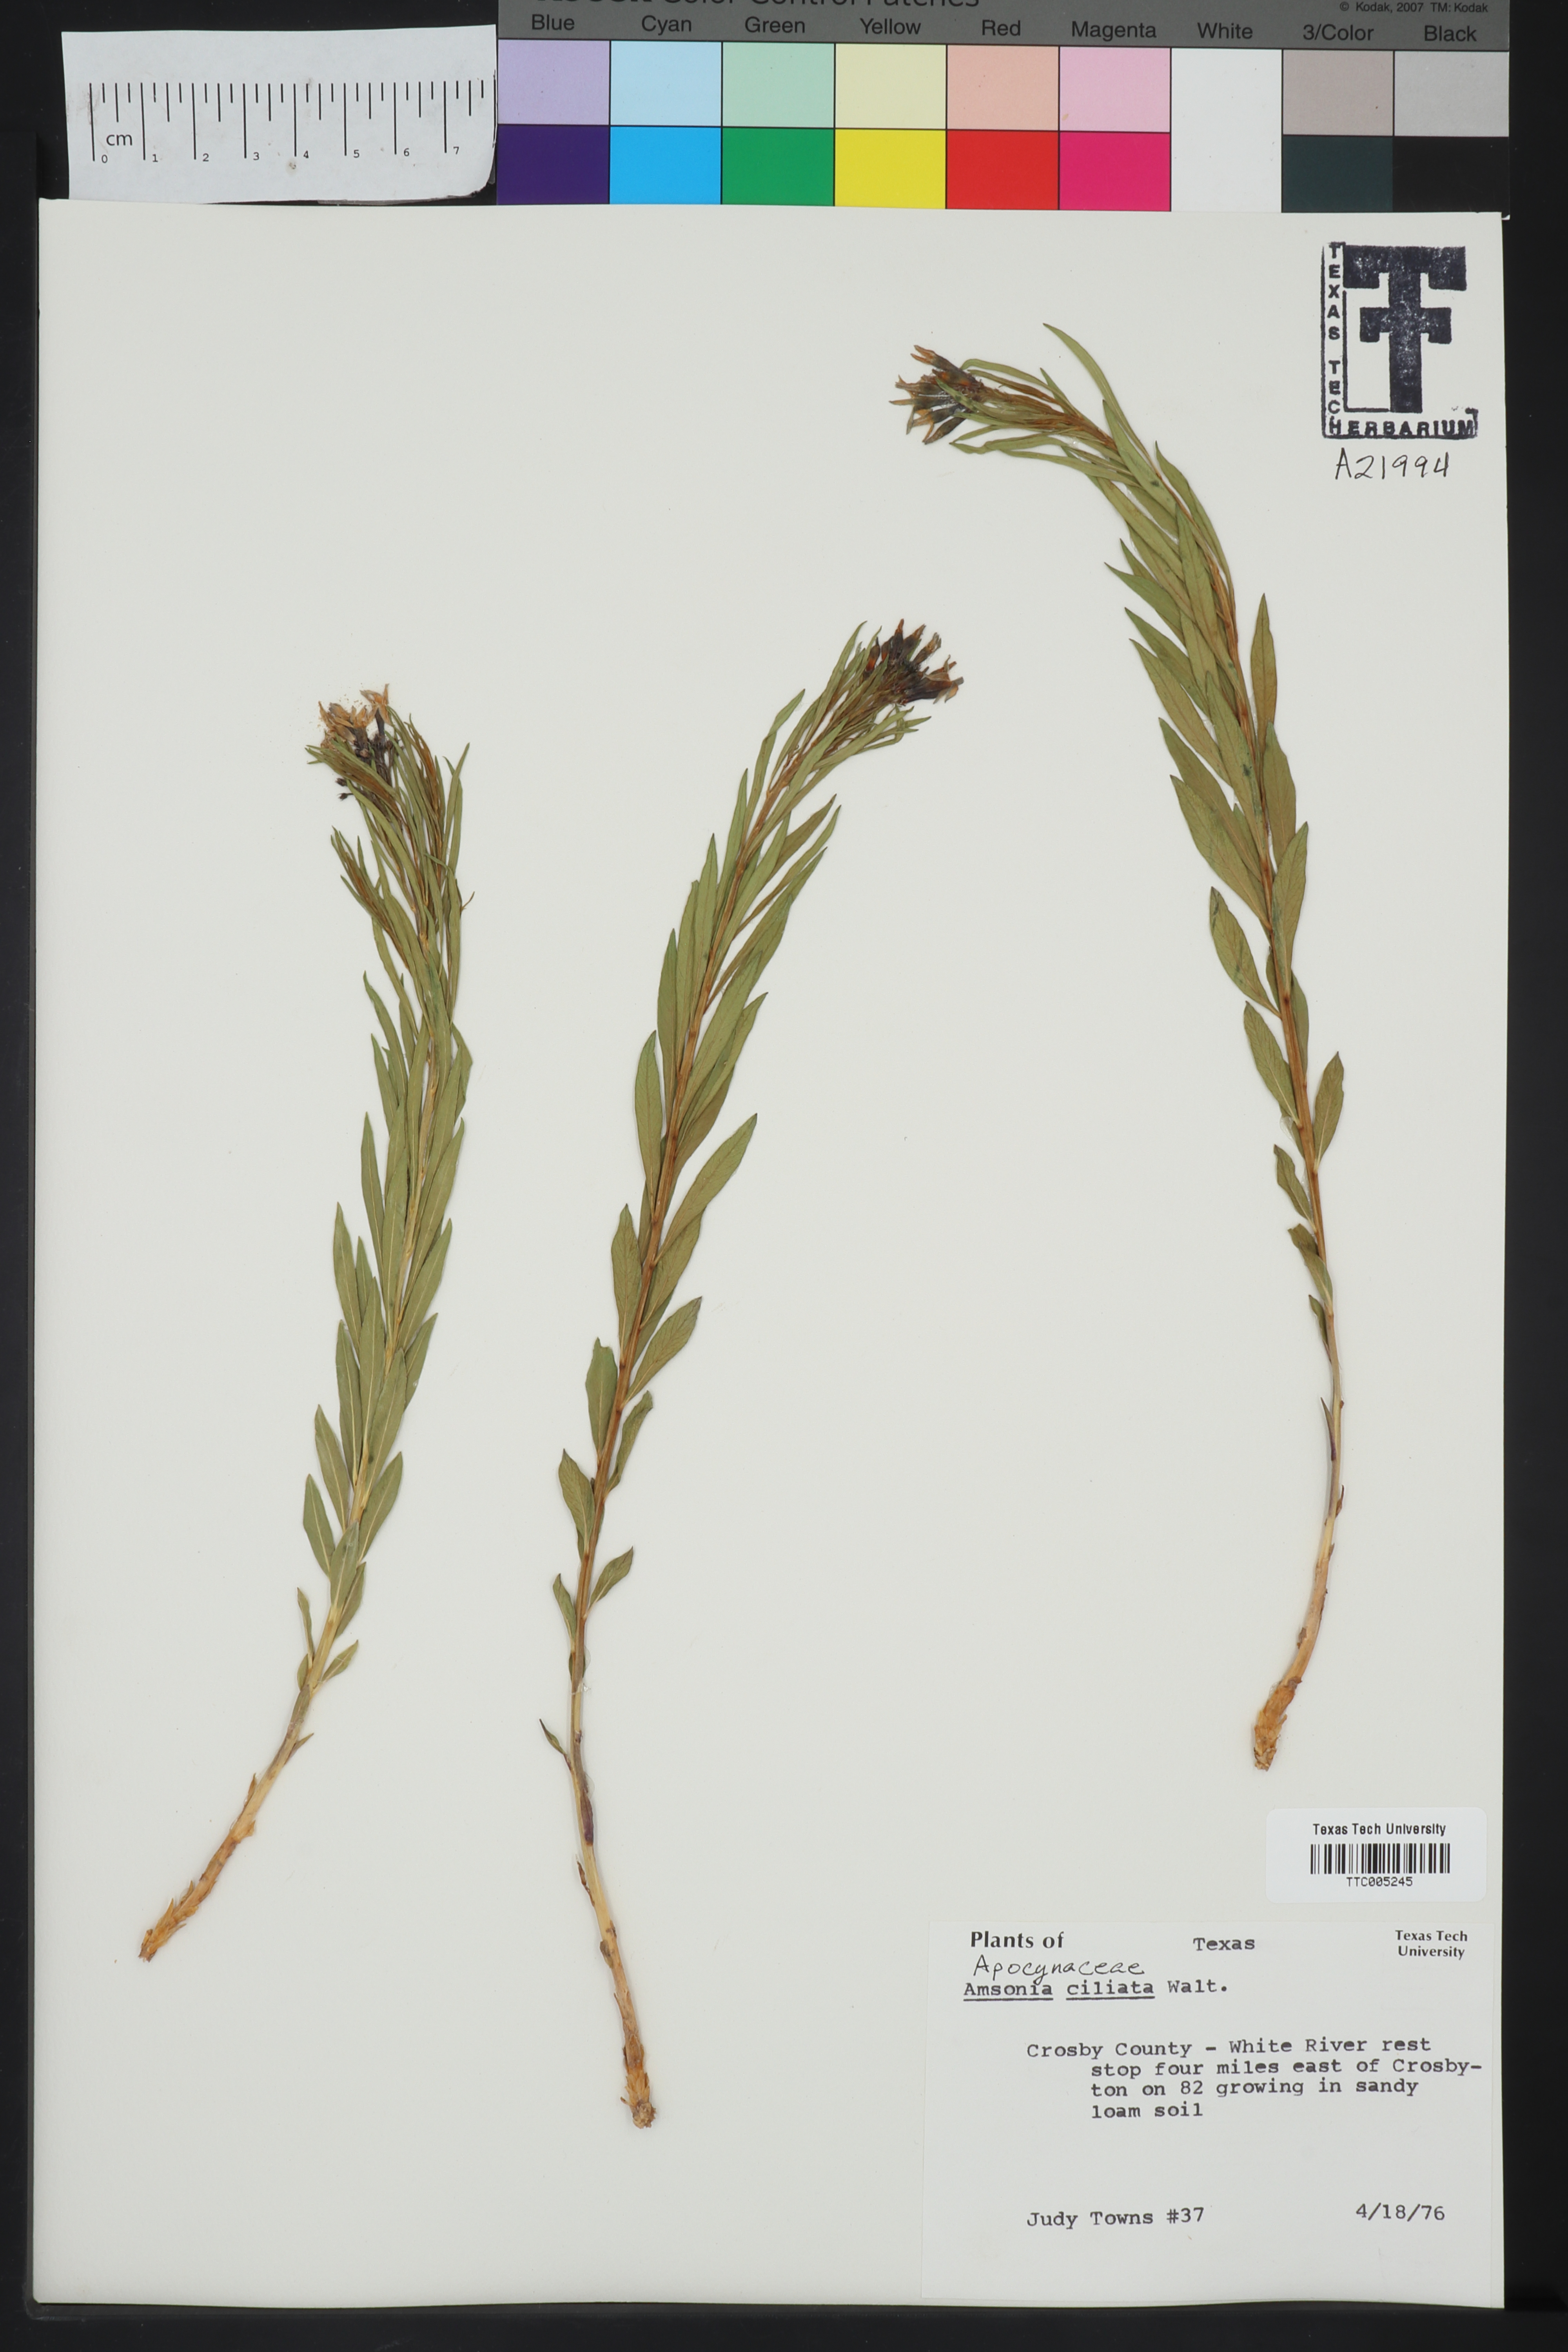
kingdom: Plantae
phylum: Tracheophyta
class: Magnoliopsida
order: Gentianales
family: Apocynaceae
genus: Amsonia
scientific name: Amsonia ciliata
